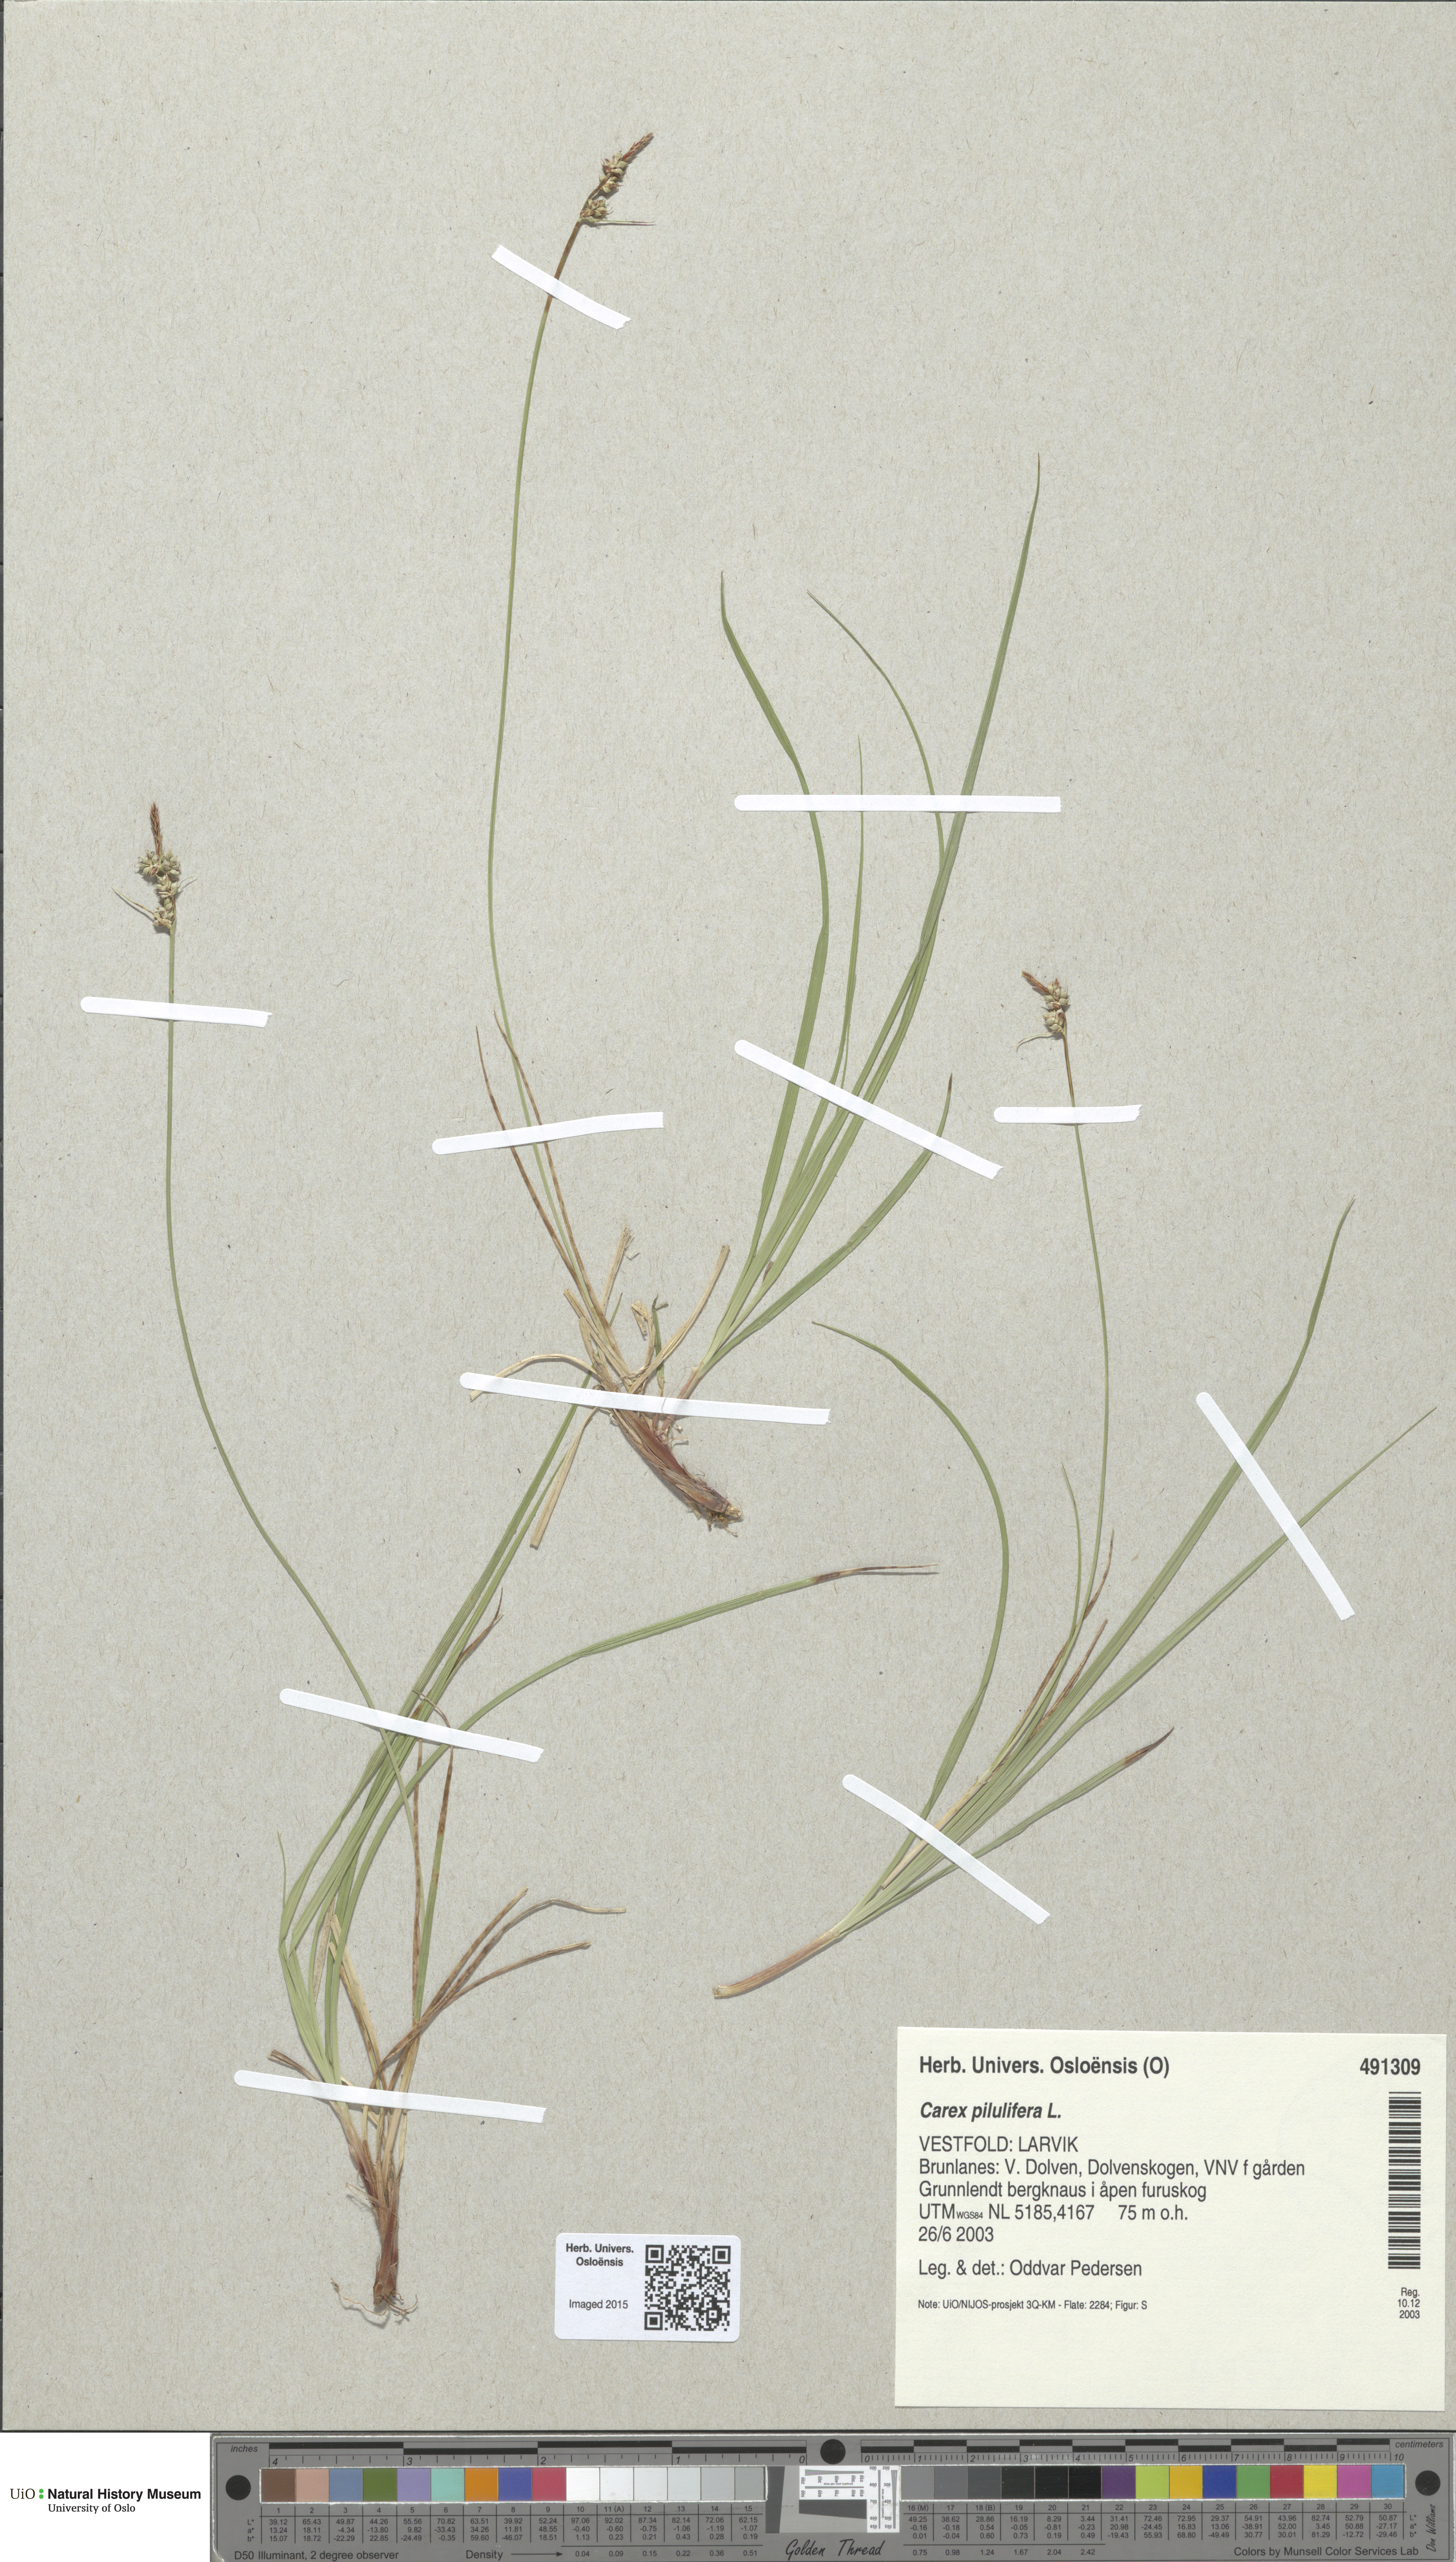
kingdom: Plantae
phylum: Tracheophyta
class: Liliopsida
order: Poales
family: Cyperaceae
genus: Carex
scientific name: Carex pilulifera
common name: Pill sedge
